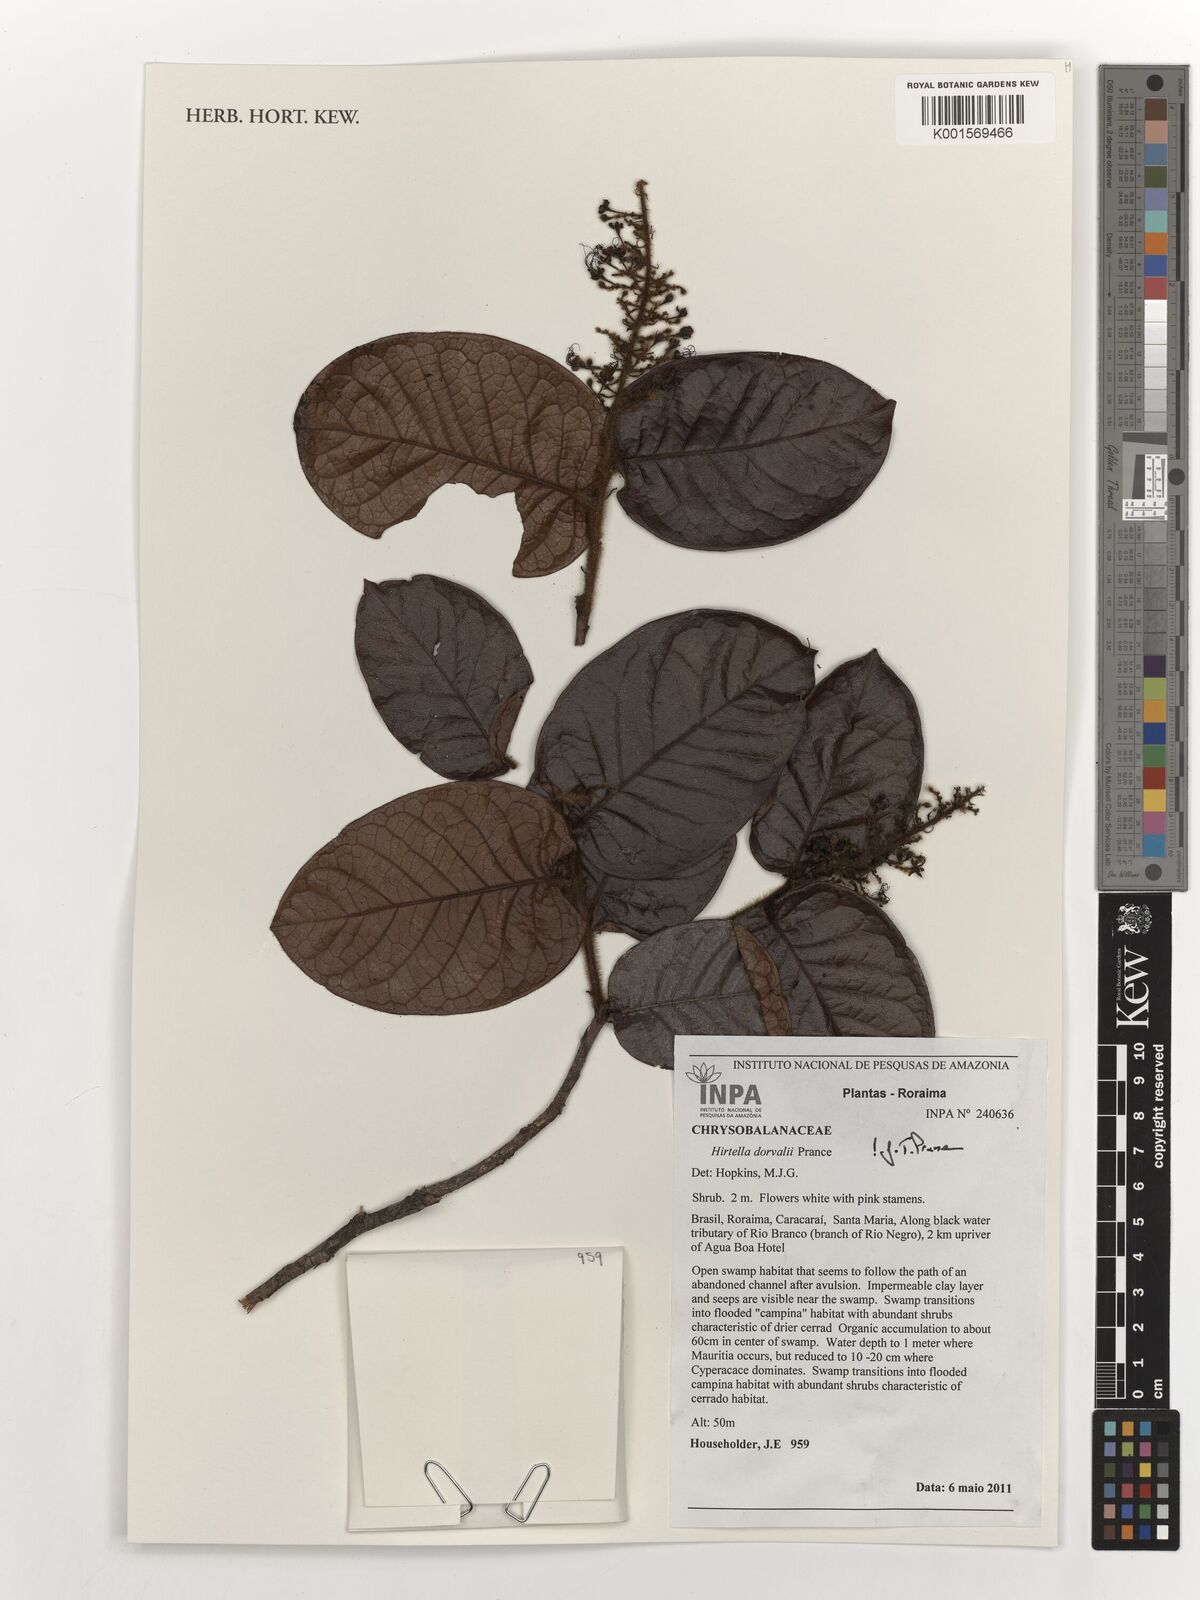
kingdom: Plantae
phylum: Tracheophyta
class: Magnoliopsida
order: Malpighiales
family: Chrysobalanaceae
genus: Hirtella
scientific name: Hirtella dorvalii
